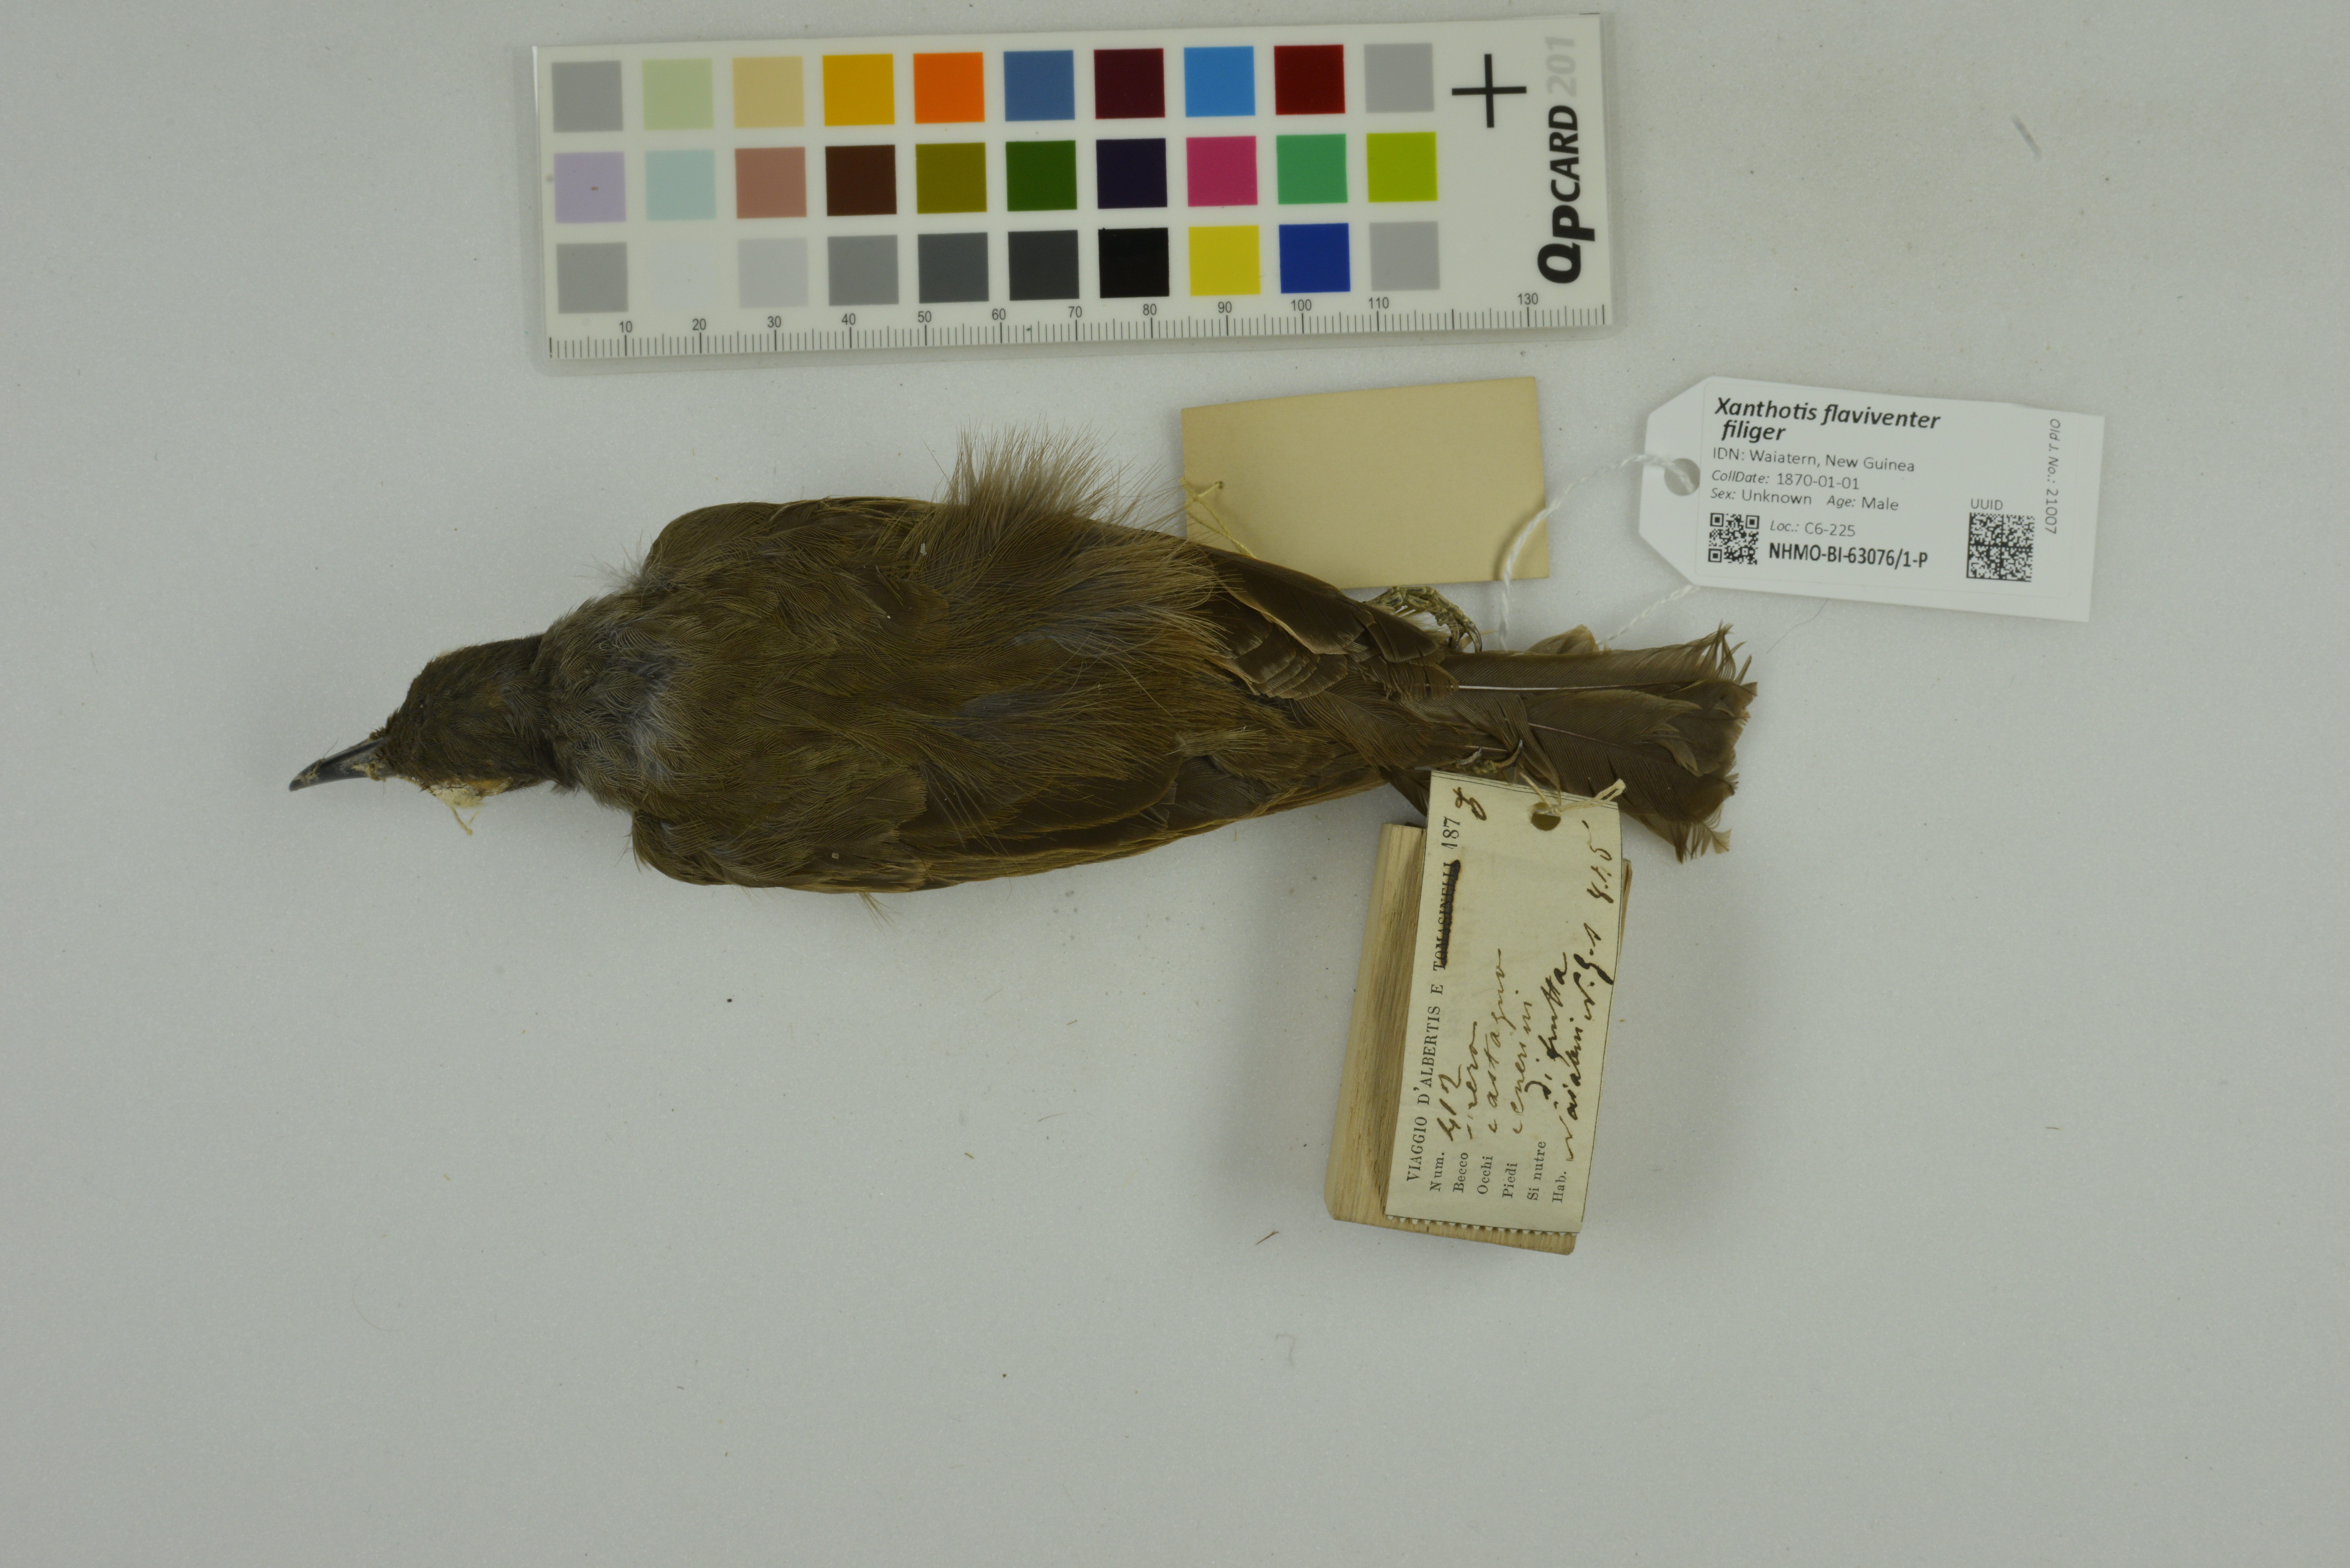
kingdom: Animalia
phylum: Chordata
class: Aves
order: Passeriformes
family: Meliphagidae
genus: Xanthotis
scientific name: Xanthotis flaviventer
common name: Tawny-breasted honeyeater
